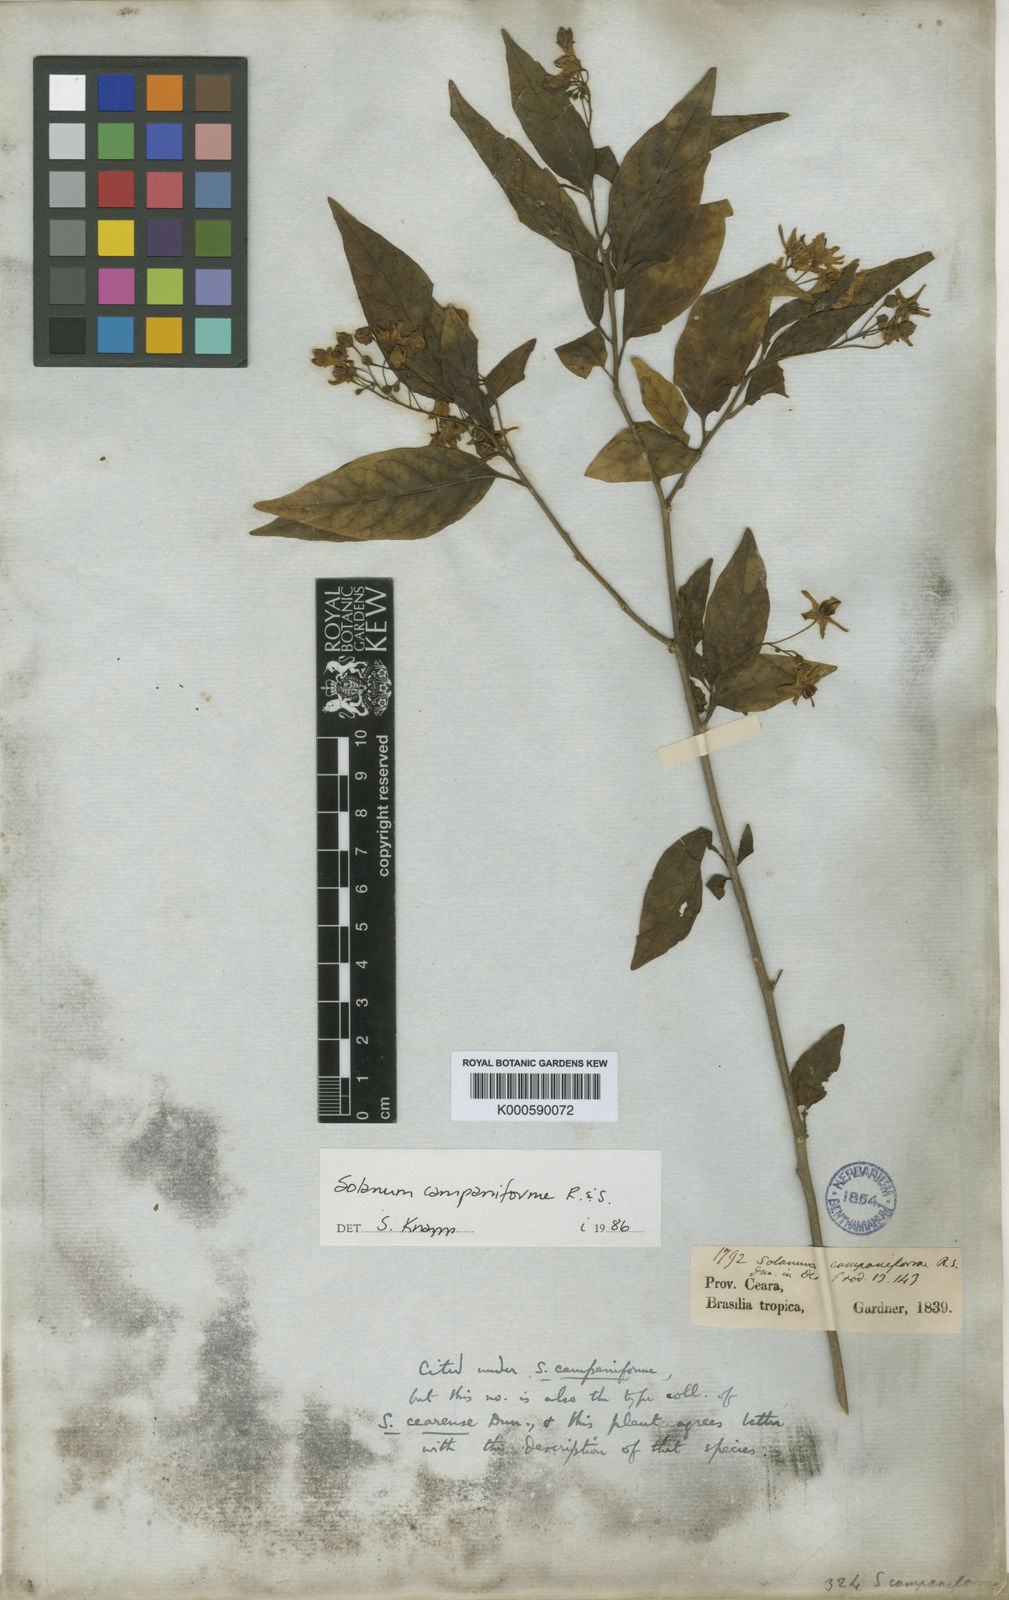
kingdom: Plantae
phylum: Tracheophyta
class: Magnoliopsida
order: Solanales
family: Solanaceae
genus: Solanum
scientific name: Solanum campaniforme
